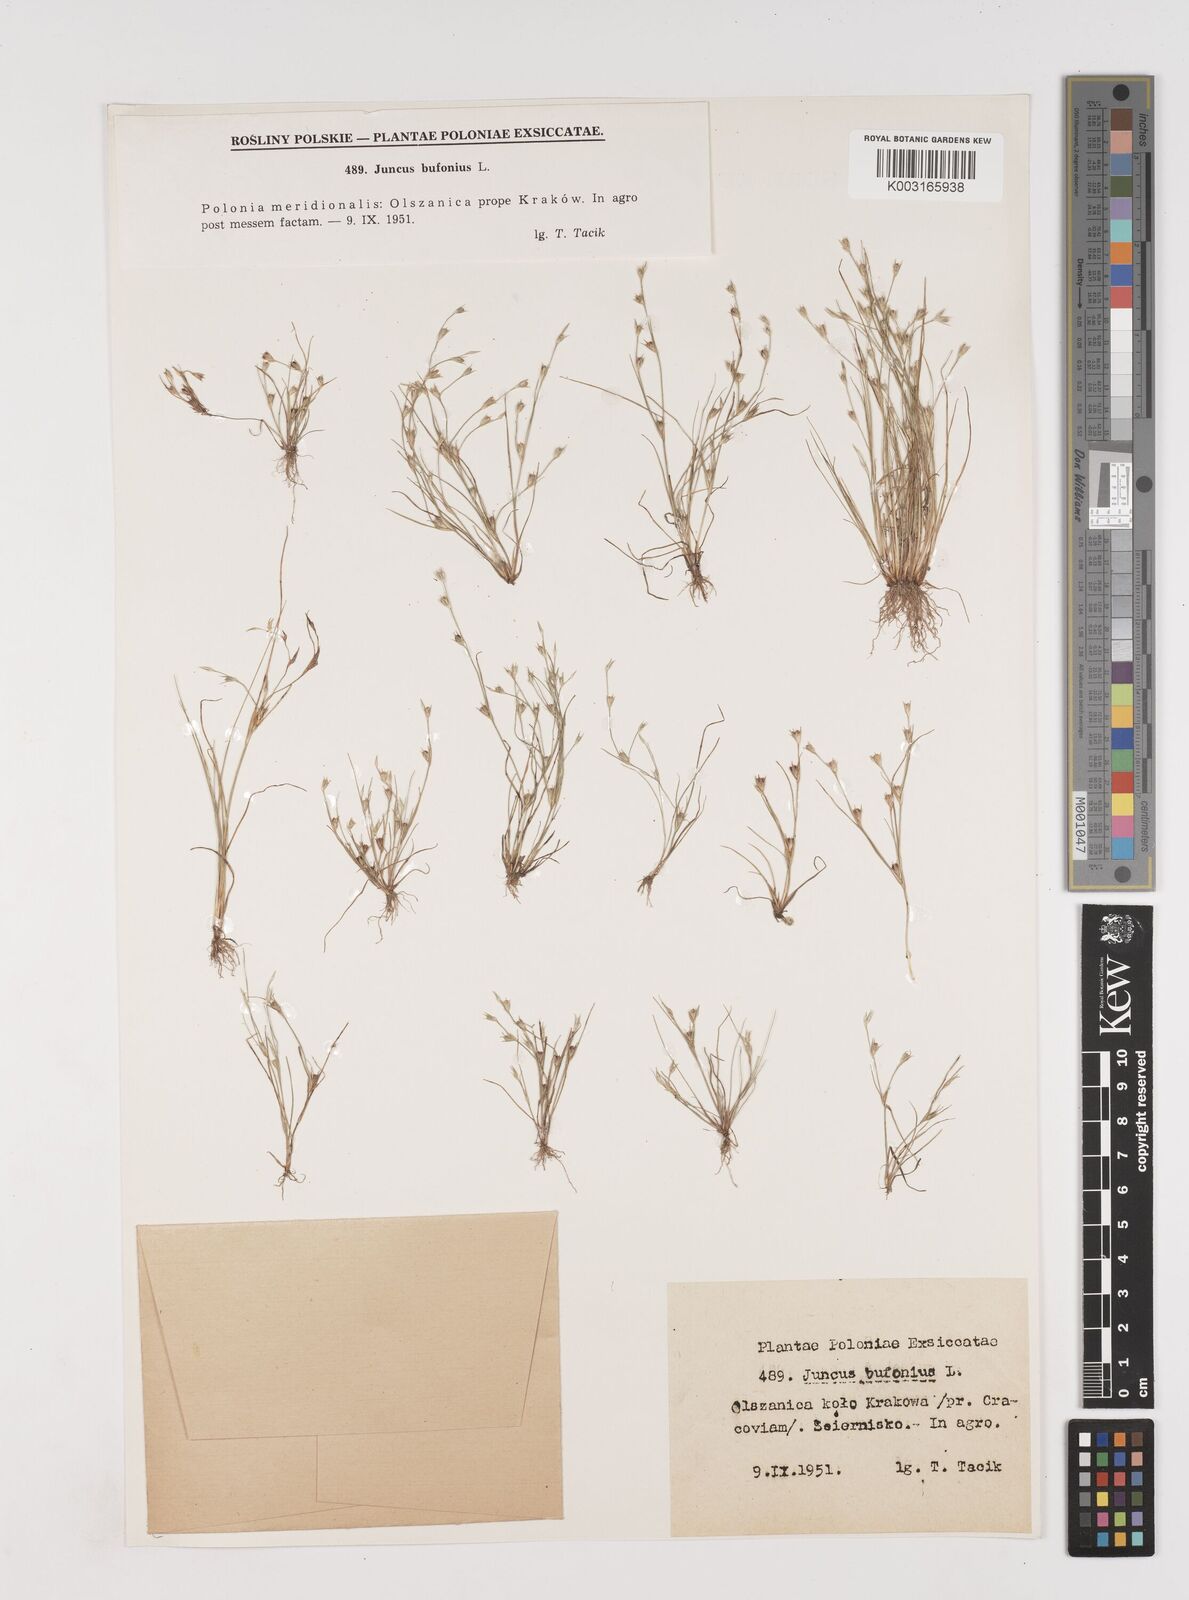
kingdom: Plantae
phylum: Tracheophyta
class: Liliopsida
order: Poales
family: Juncaceae
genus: Juncus
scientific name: Juncus bufonius
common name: Toad rush
